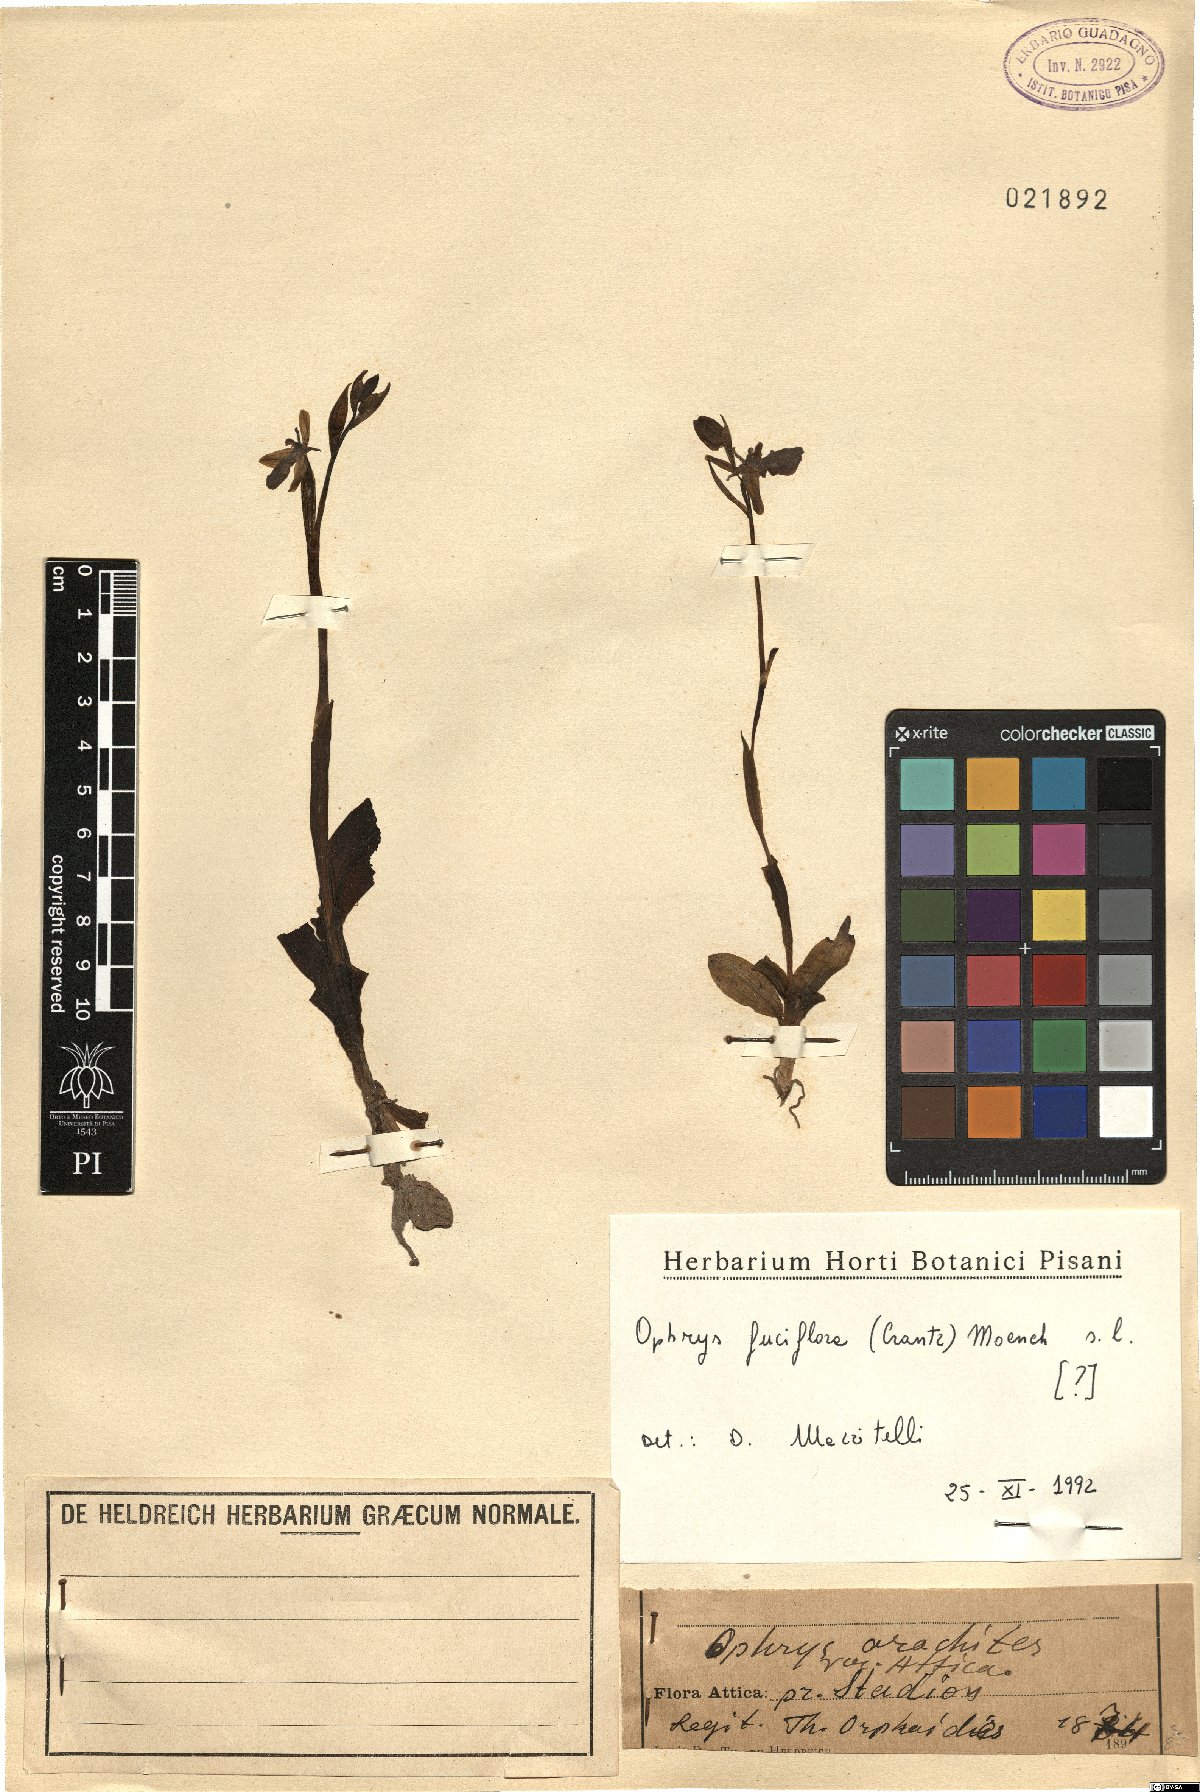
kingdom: Plantae
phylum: Tracheophyta
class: Liliopsida
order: Asparagales
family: Orchidaceae
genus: Ophrys
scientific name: Ophrys holosericea
